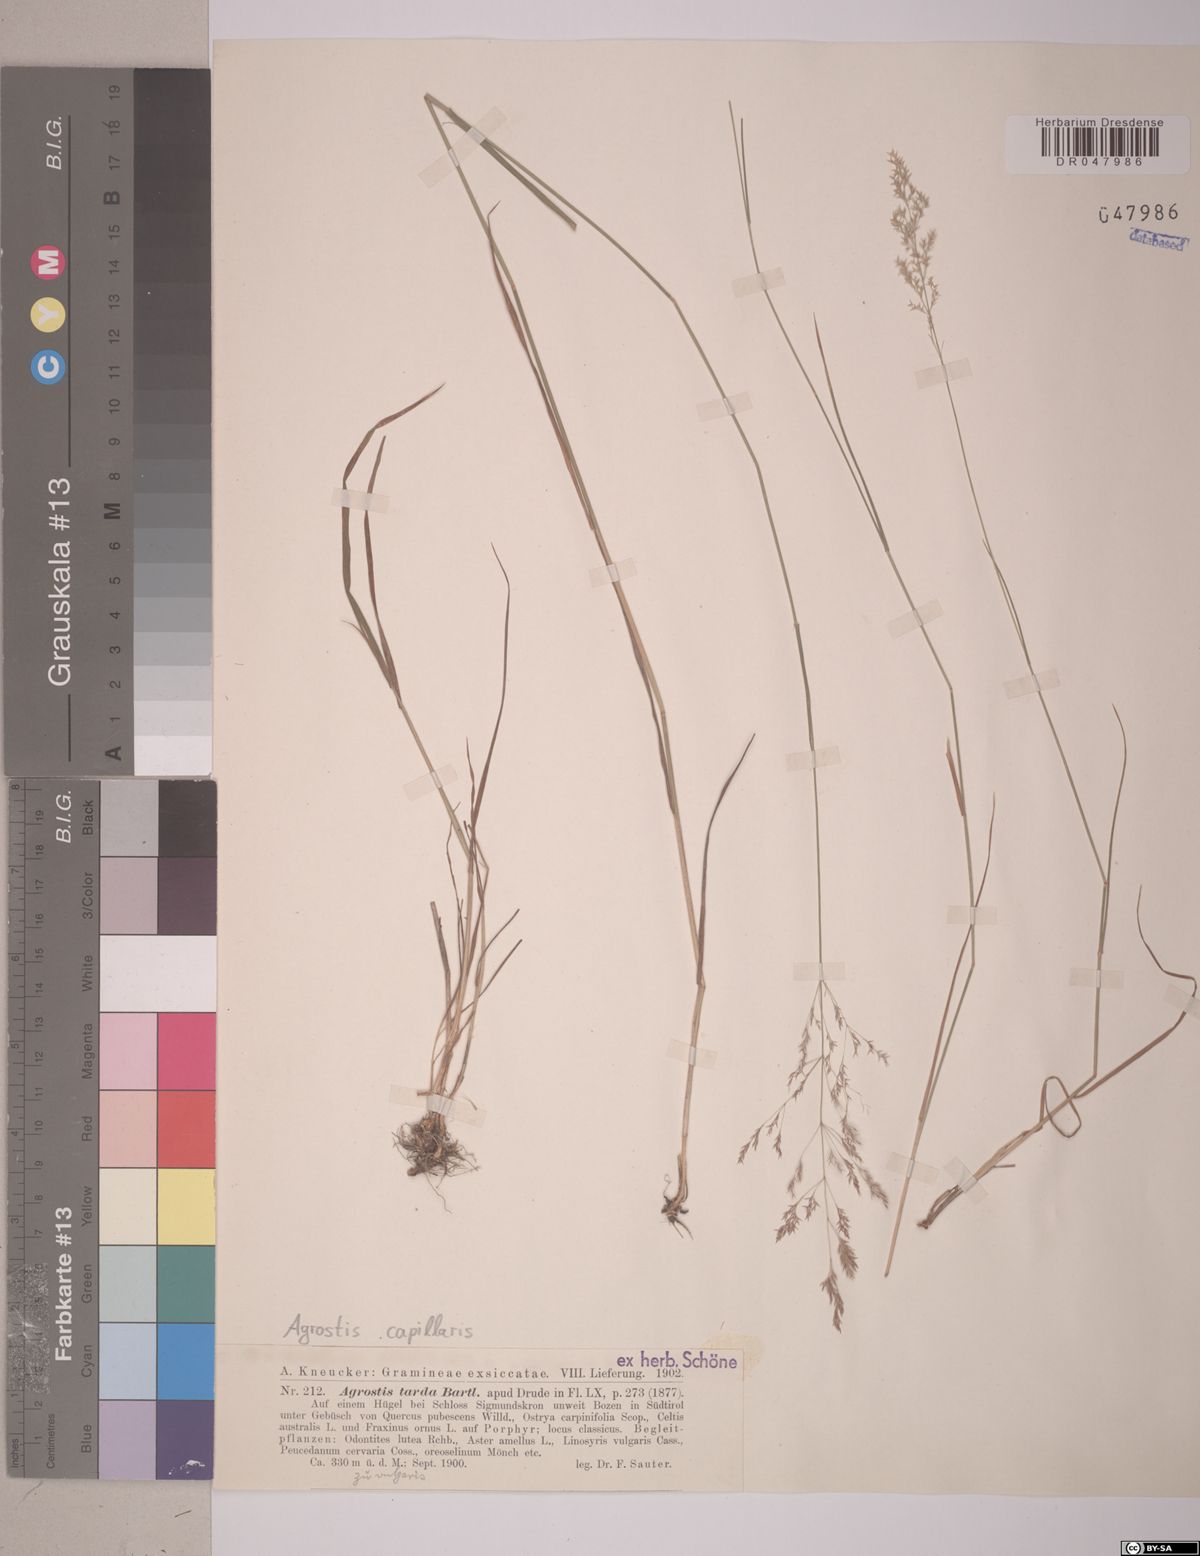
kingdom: Plantae
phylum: Tracheophyta
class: Liliopsida
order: Poales
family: Poaceae
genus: Agrostis
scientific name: Agrostis capillaris
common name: Colonial bentgrass
